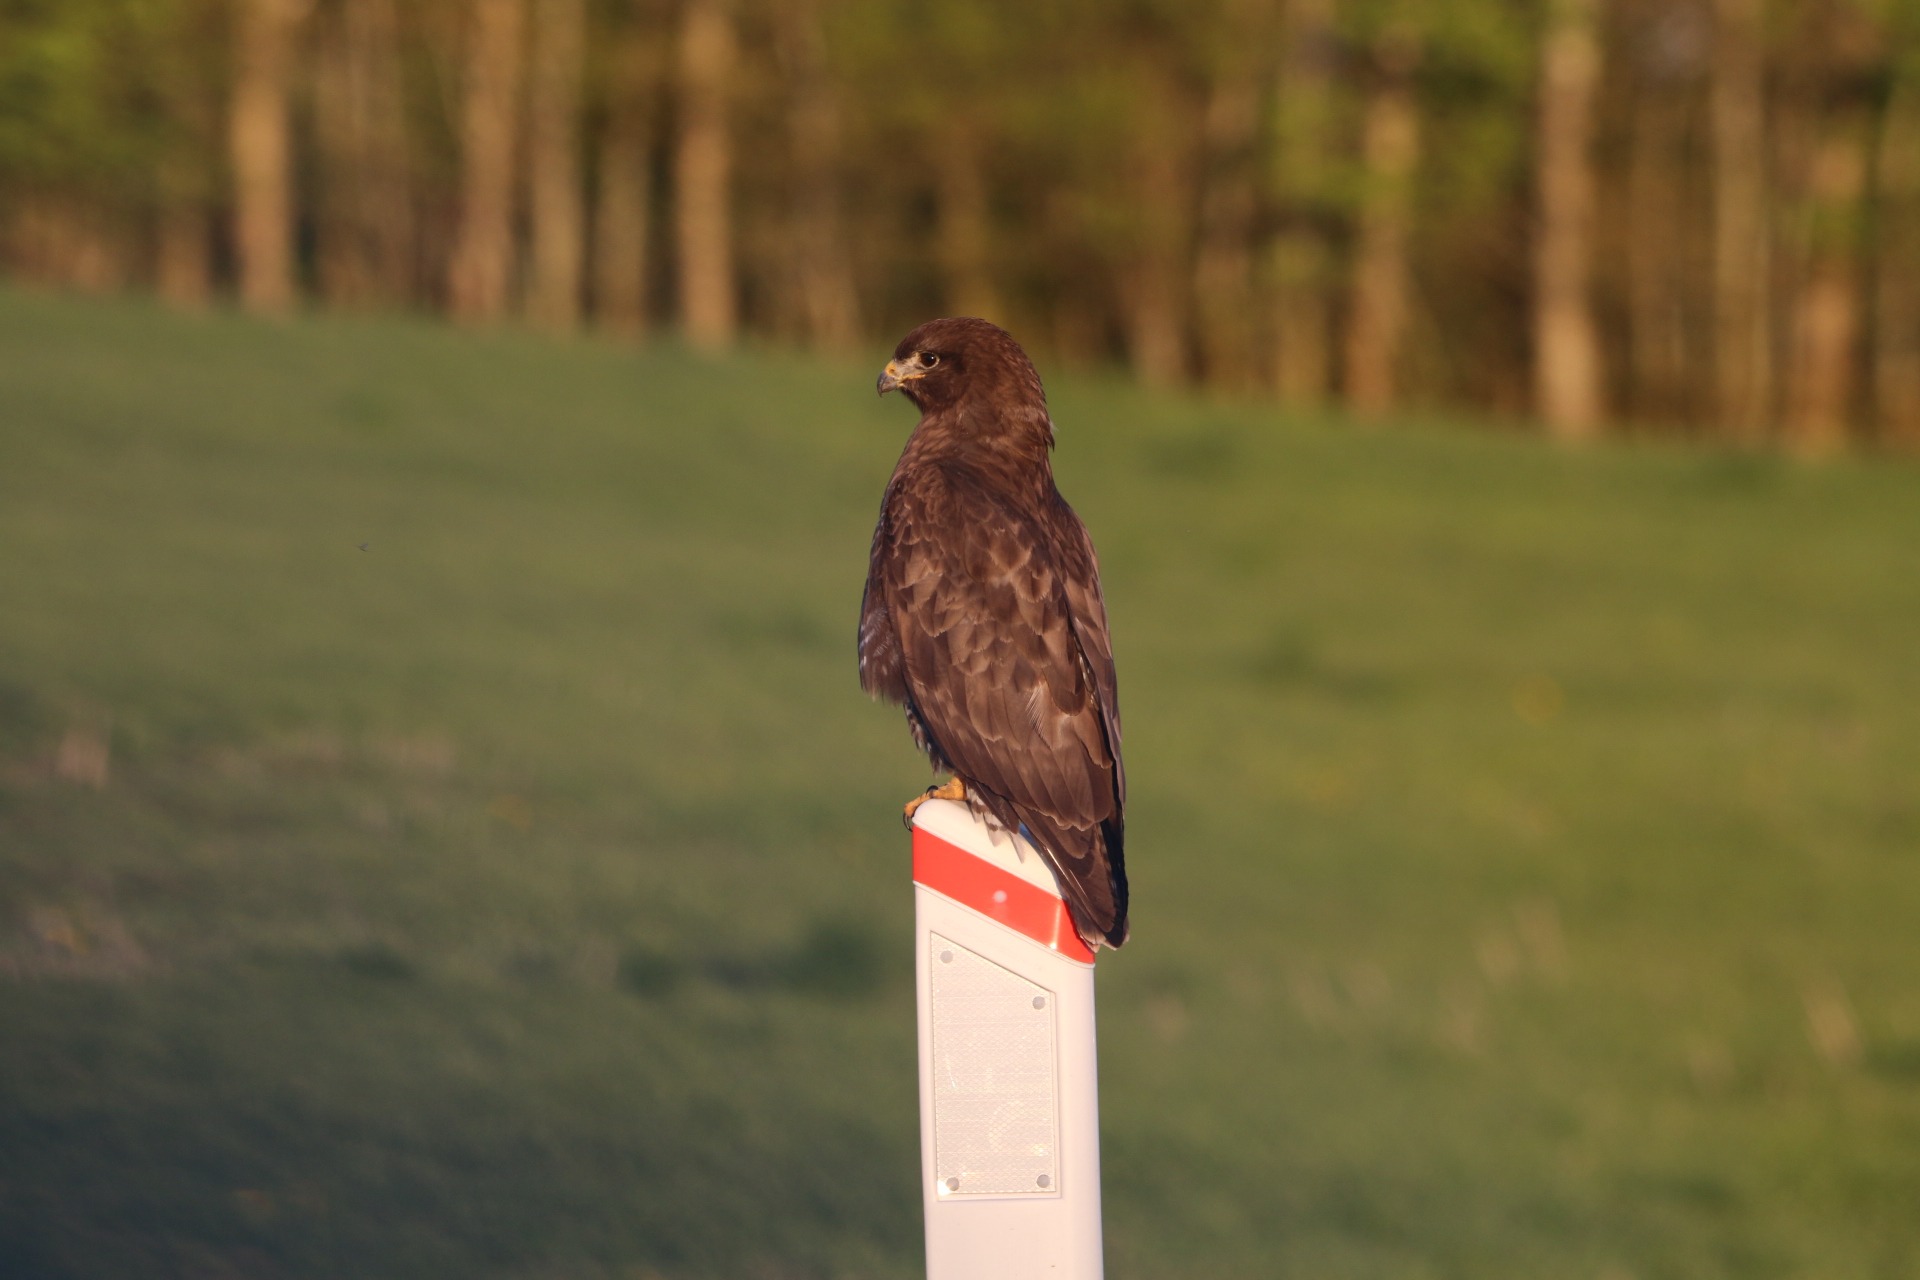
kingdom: Animalia
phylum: Chordata
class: Aves
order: Accipitriformes
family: Accipitridae
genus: Buteo
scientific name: Buteo buteo
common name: Musvåge
